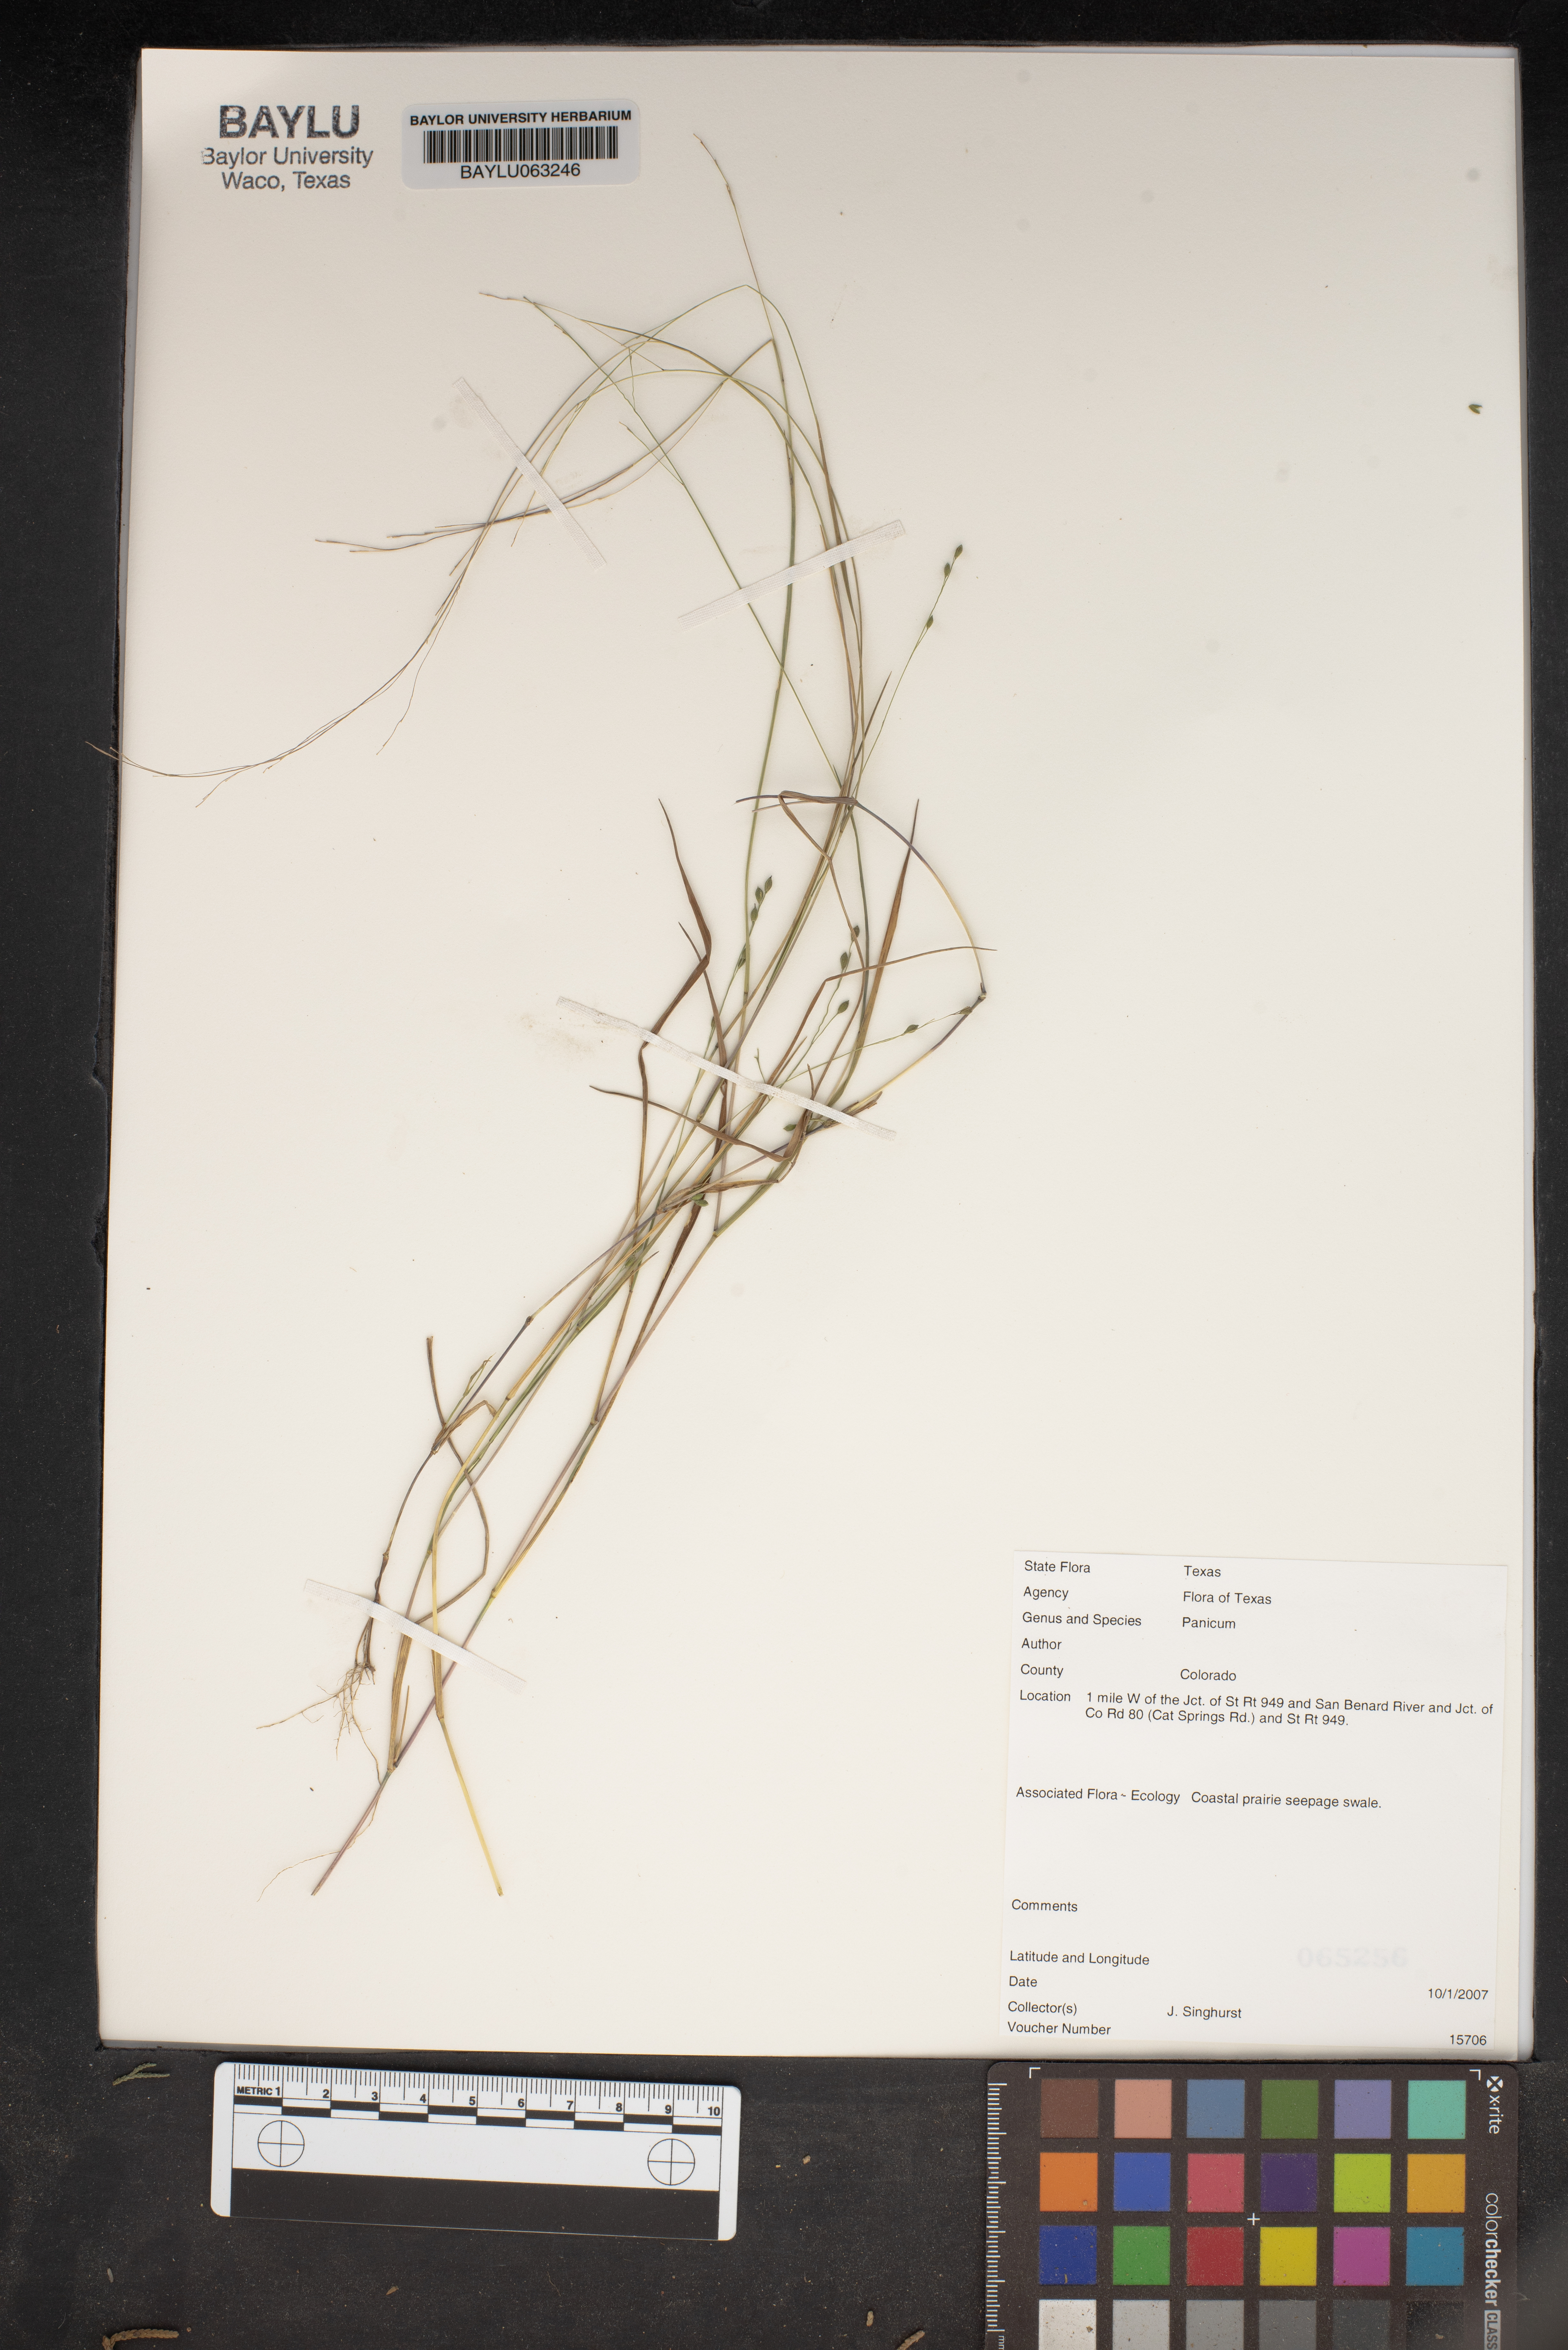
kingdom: Plantae
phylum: Tracheophyta
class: Liliopsida
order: Poales
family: Poaceae
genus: Panicum
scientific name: Panicum
